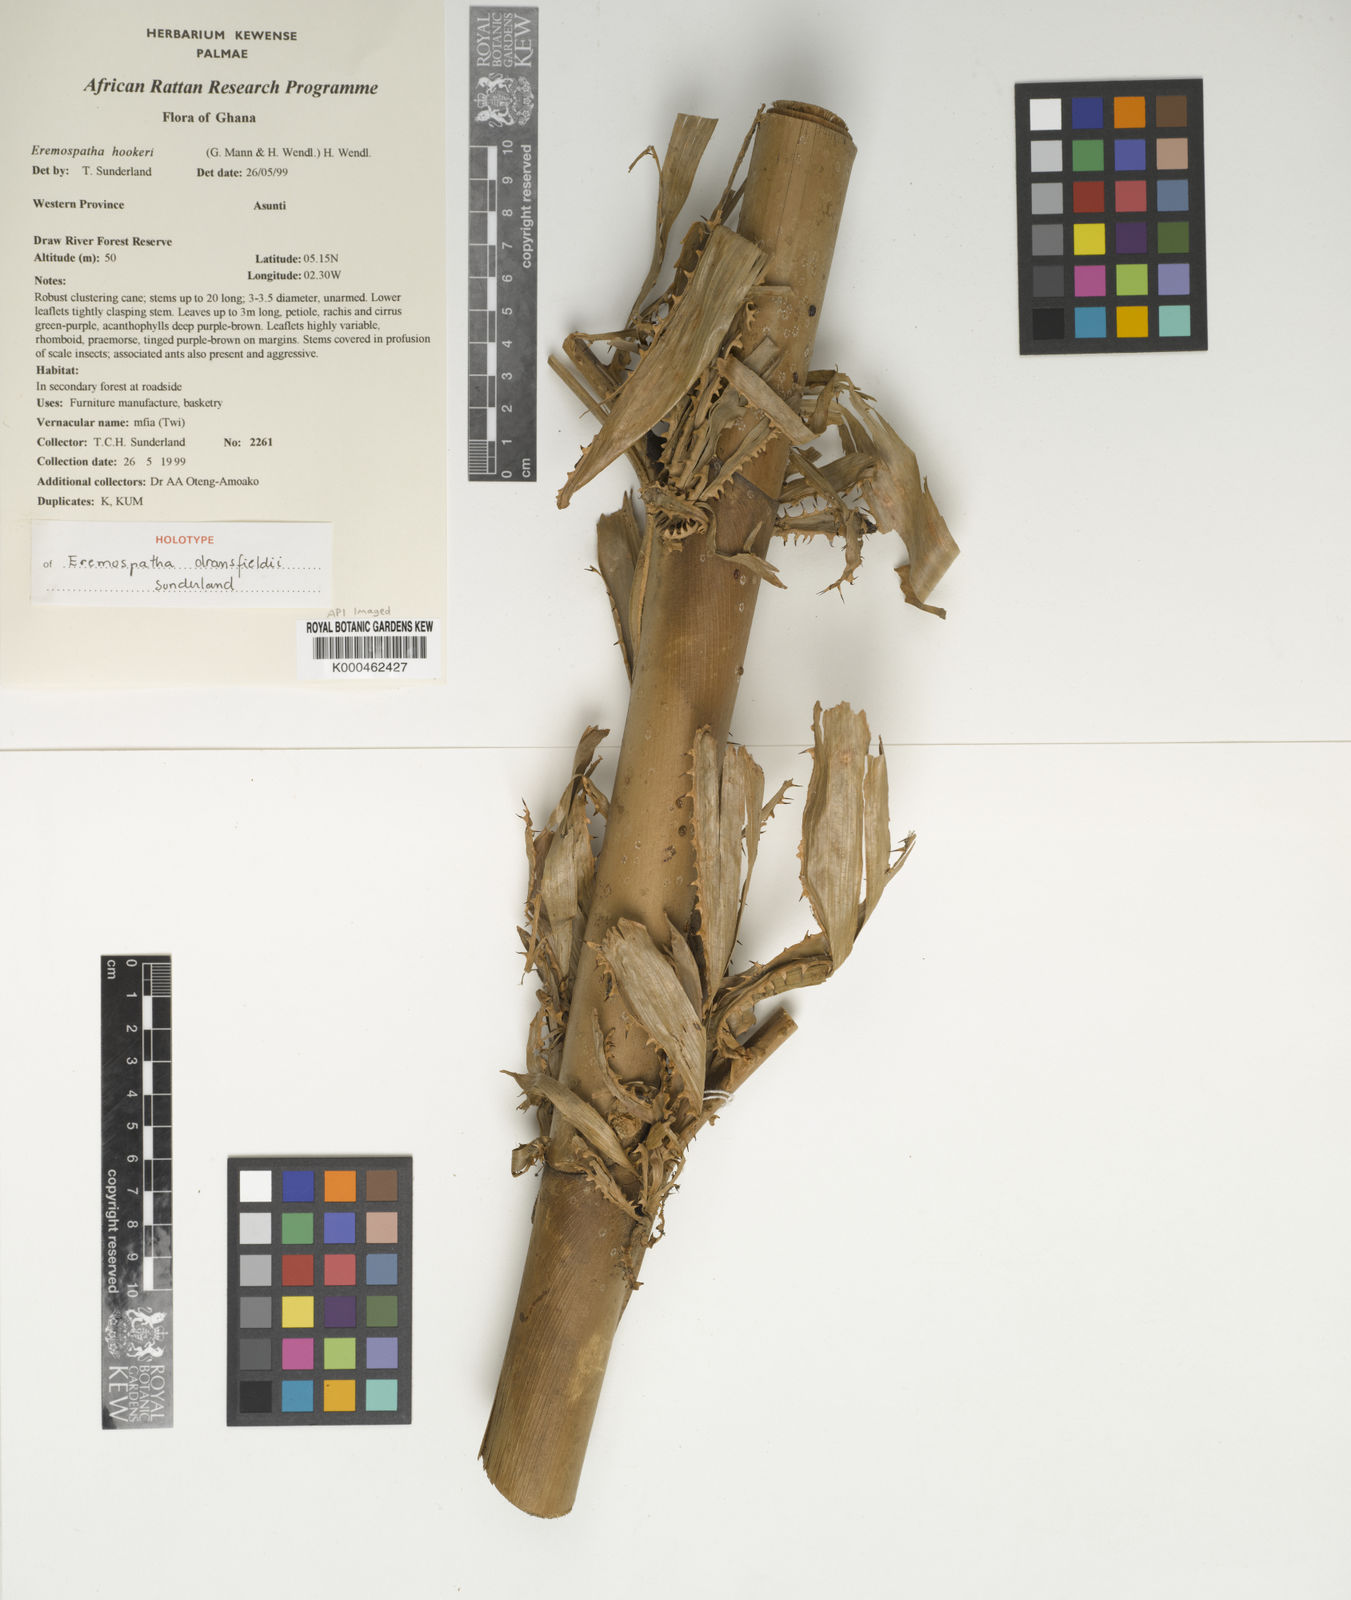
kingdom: Plantae
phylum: Tracheophyta
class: Liliopsida
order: Arecales
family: Arecaceae
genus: Eremospatha
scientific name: Eremospatha dransfieldii
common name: Rattan
